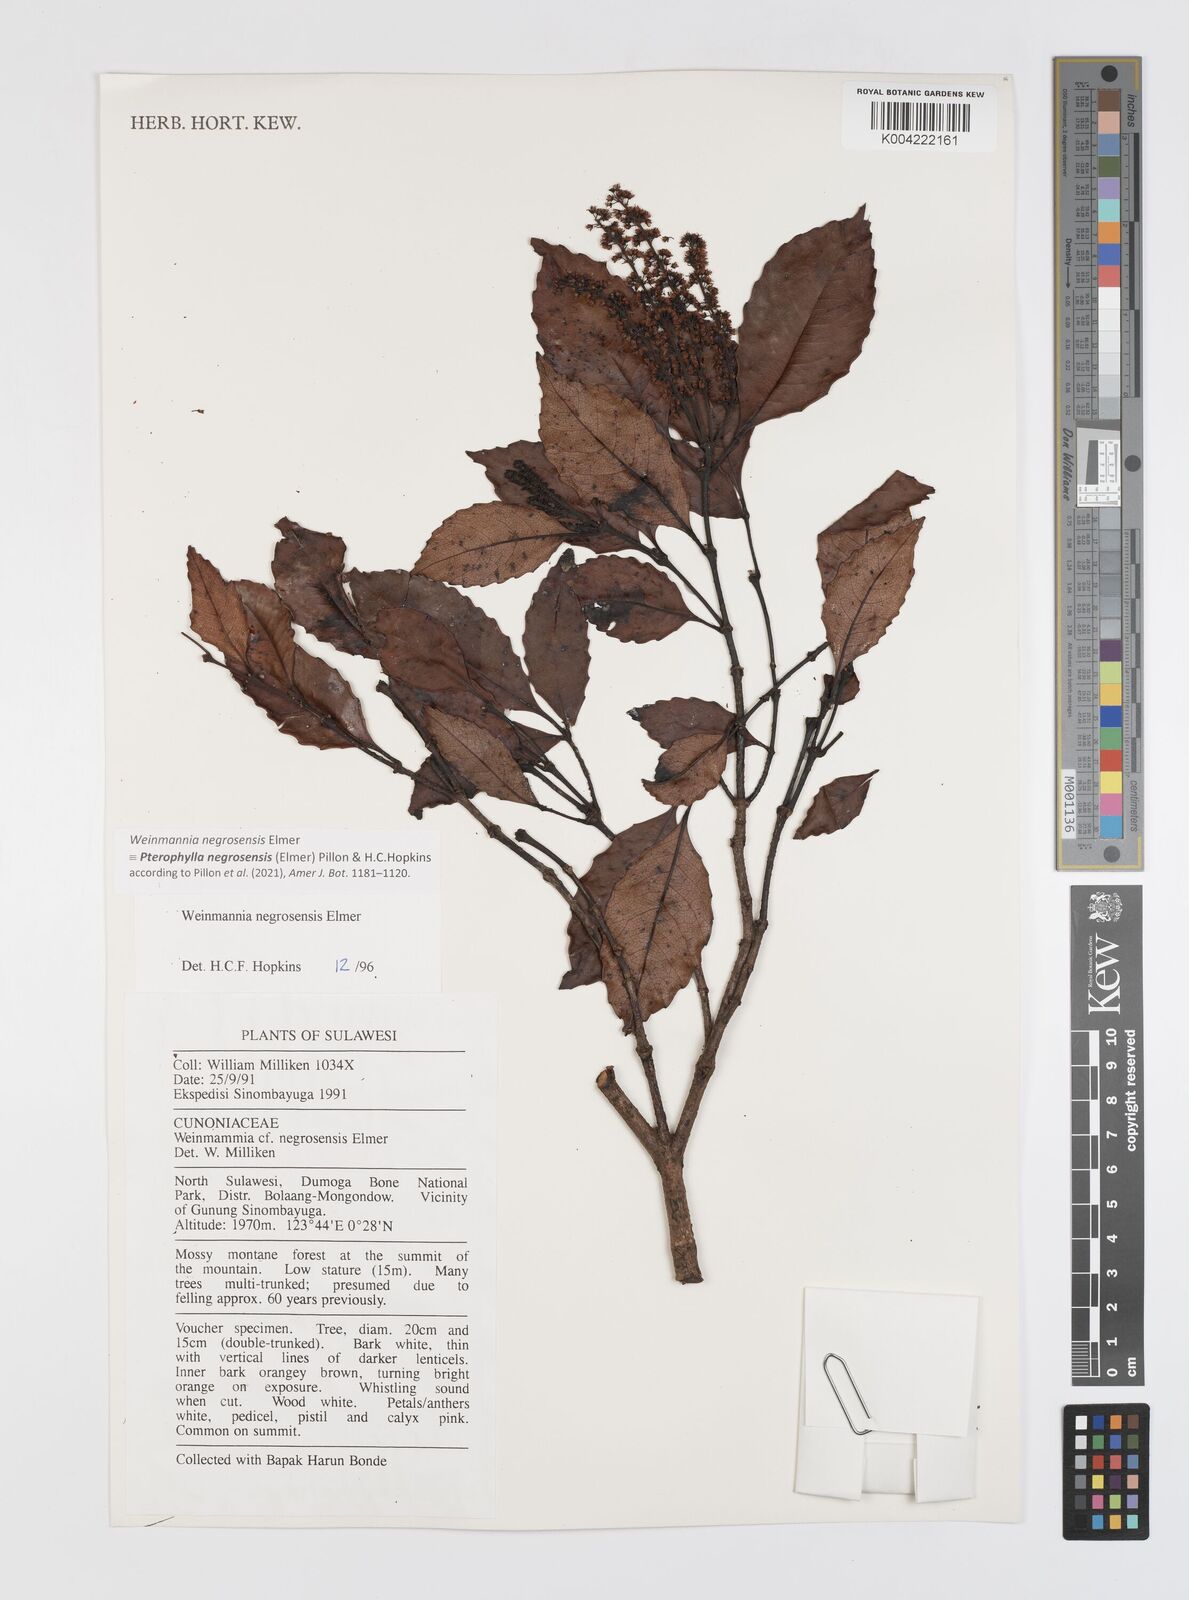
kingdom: Plantae
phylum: Tracheophyta
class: Magnoliopsida
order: Oxalidales
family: Cunoniaceae
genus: Pterophylla
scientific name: Pterophylla negrosensis
